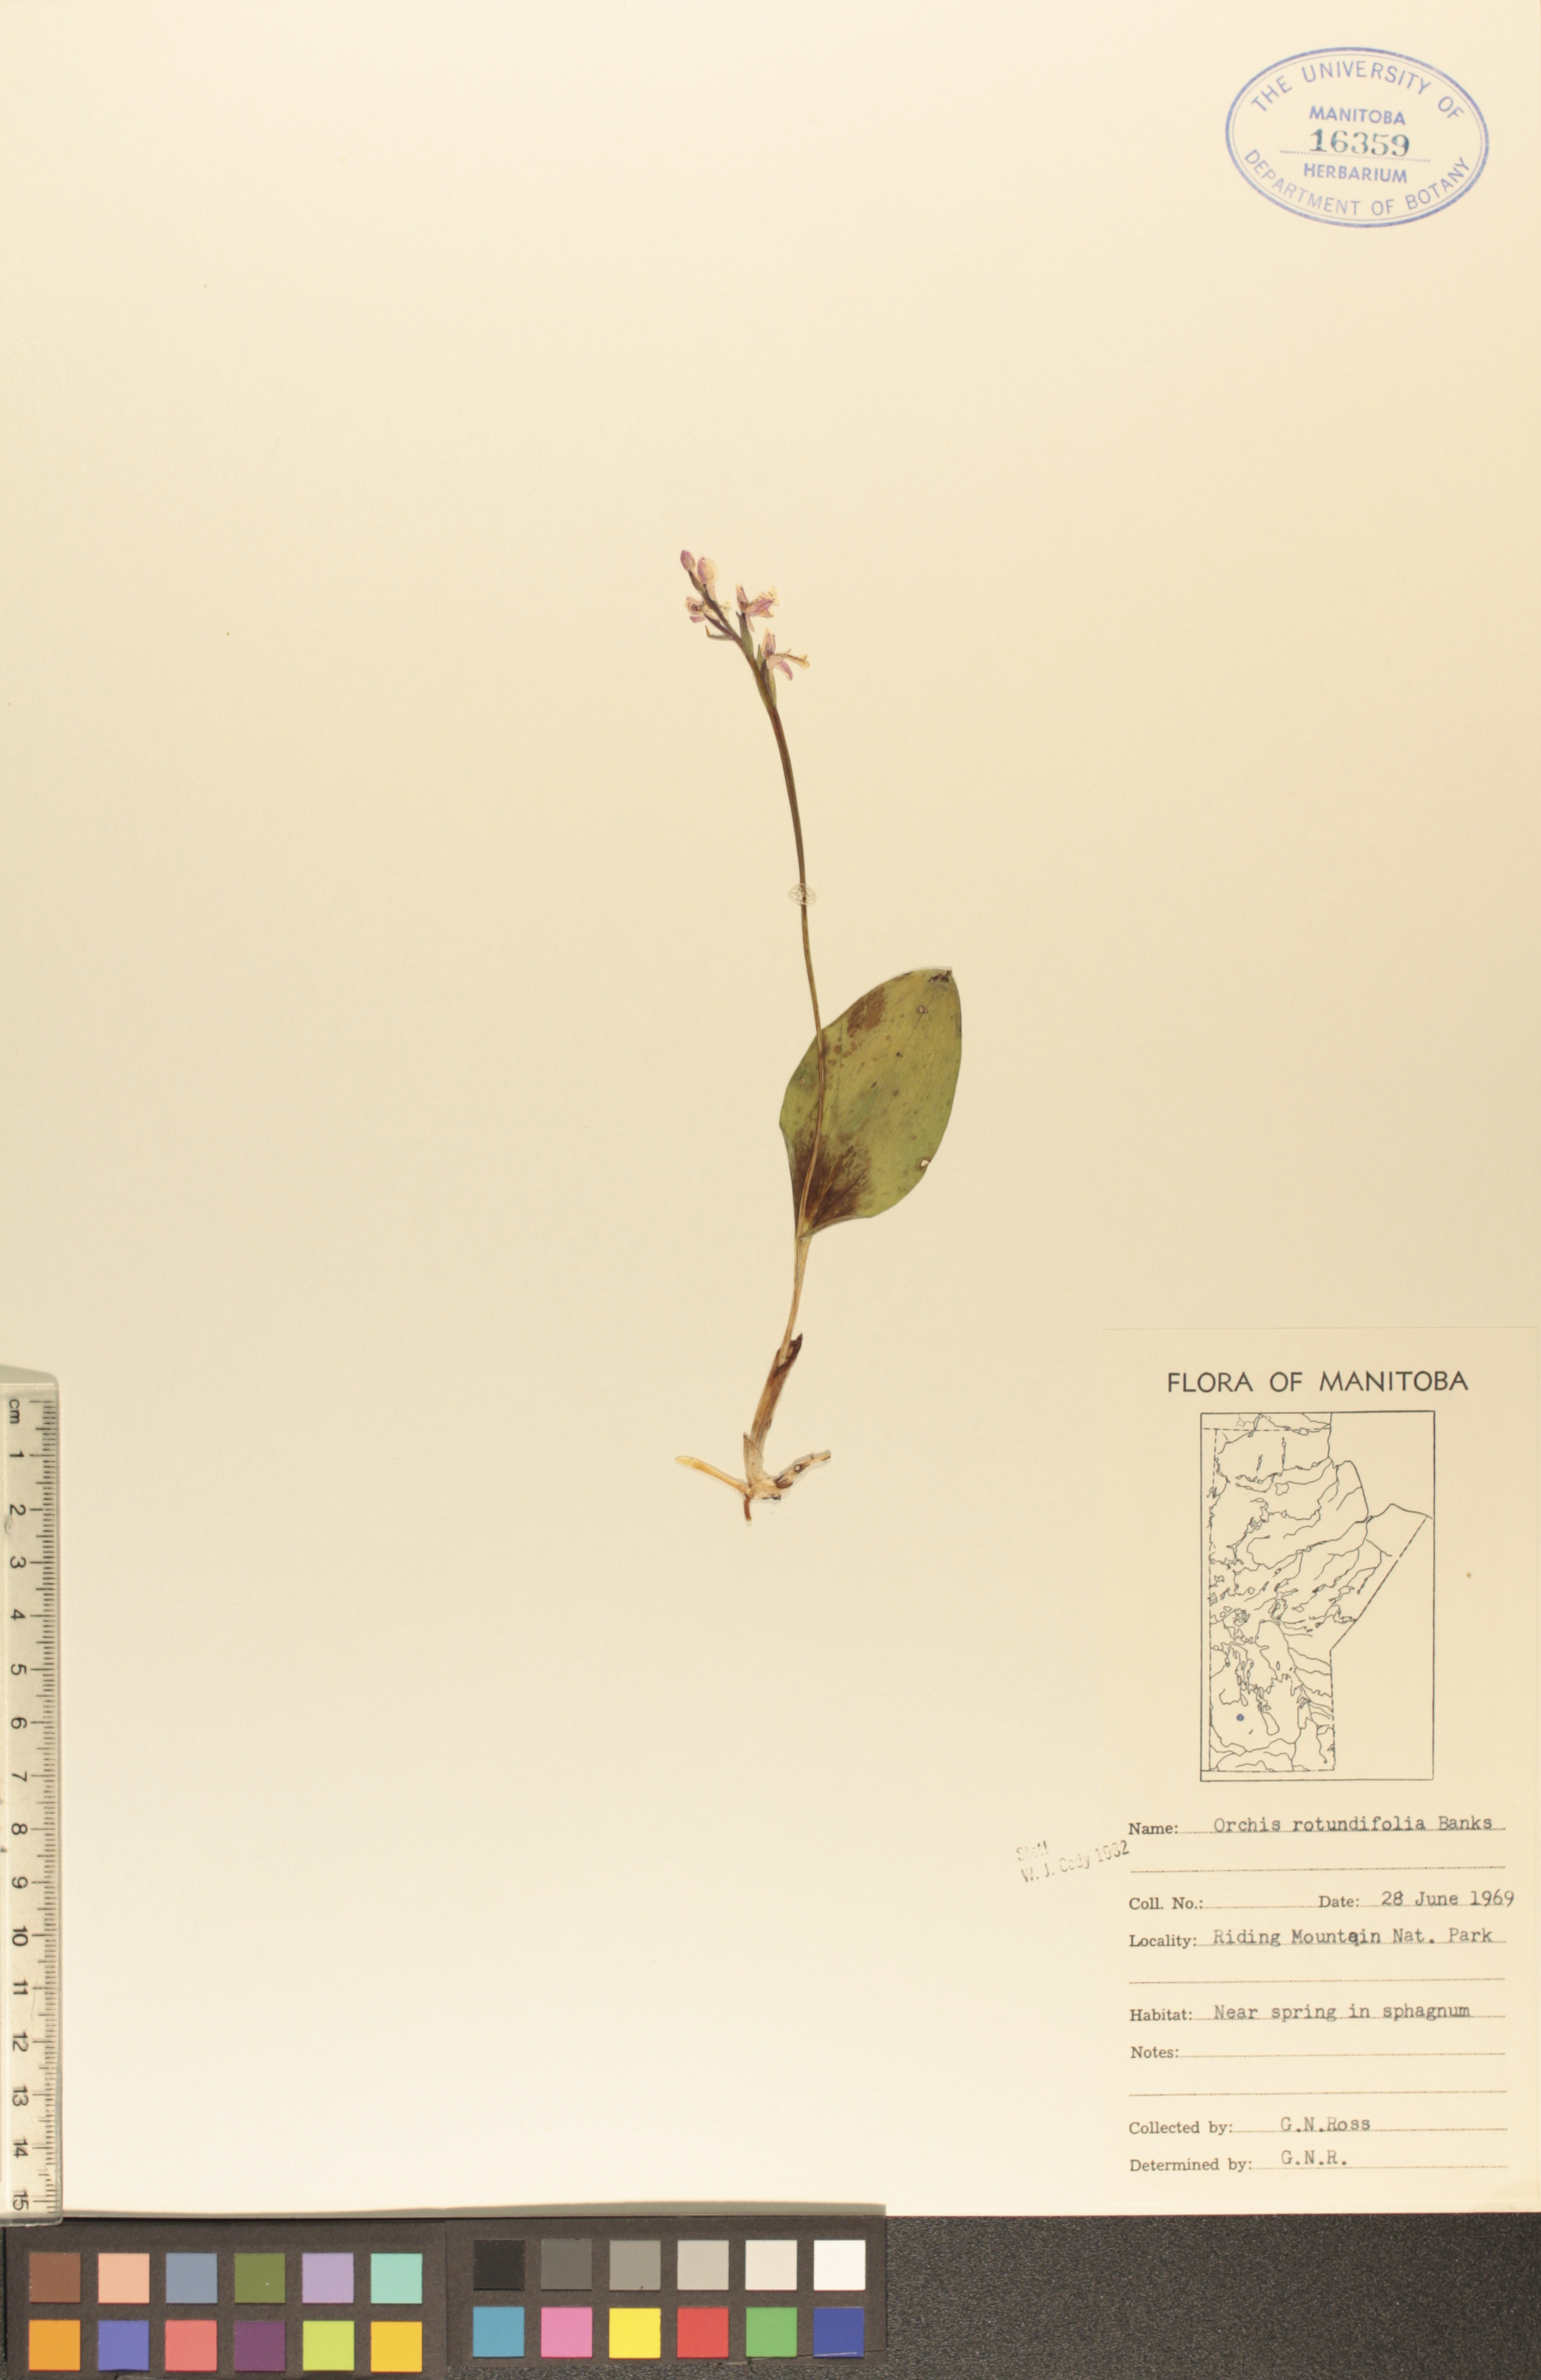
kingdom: Plantae
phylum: Tracheophyta
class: Liliopsida
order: Asparagales
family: Orchidaceae
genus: Galearis
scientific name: Galearis rotundifolia
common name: One-leaved orchis
